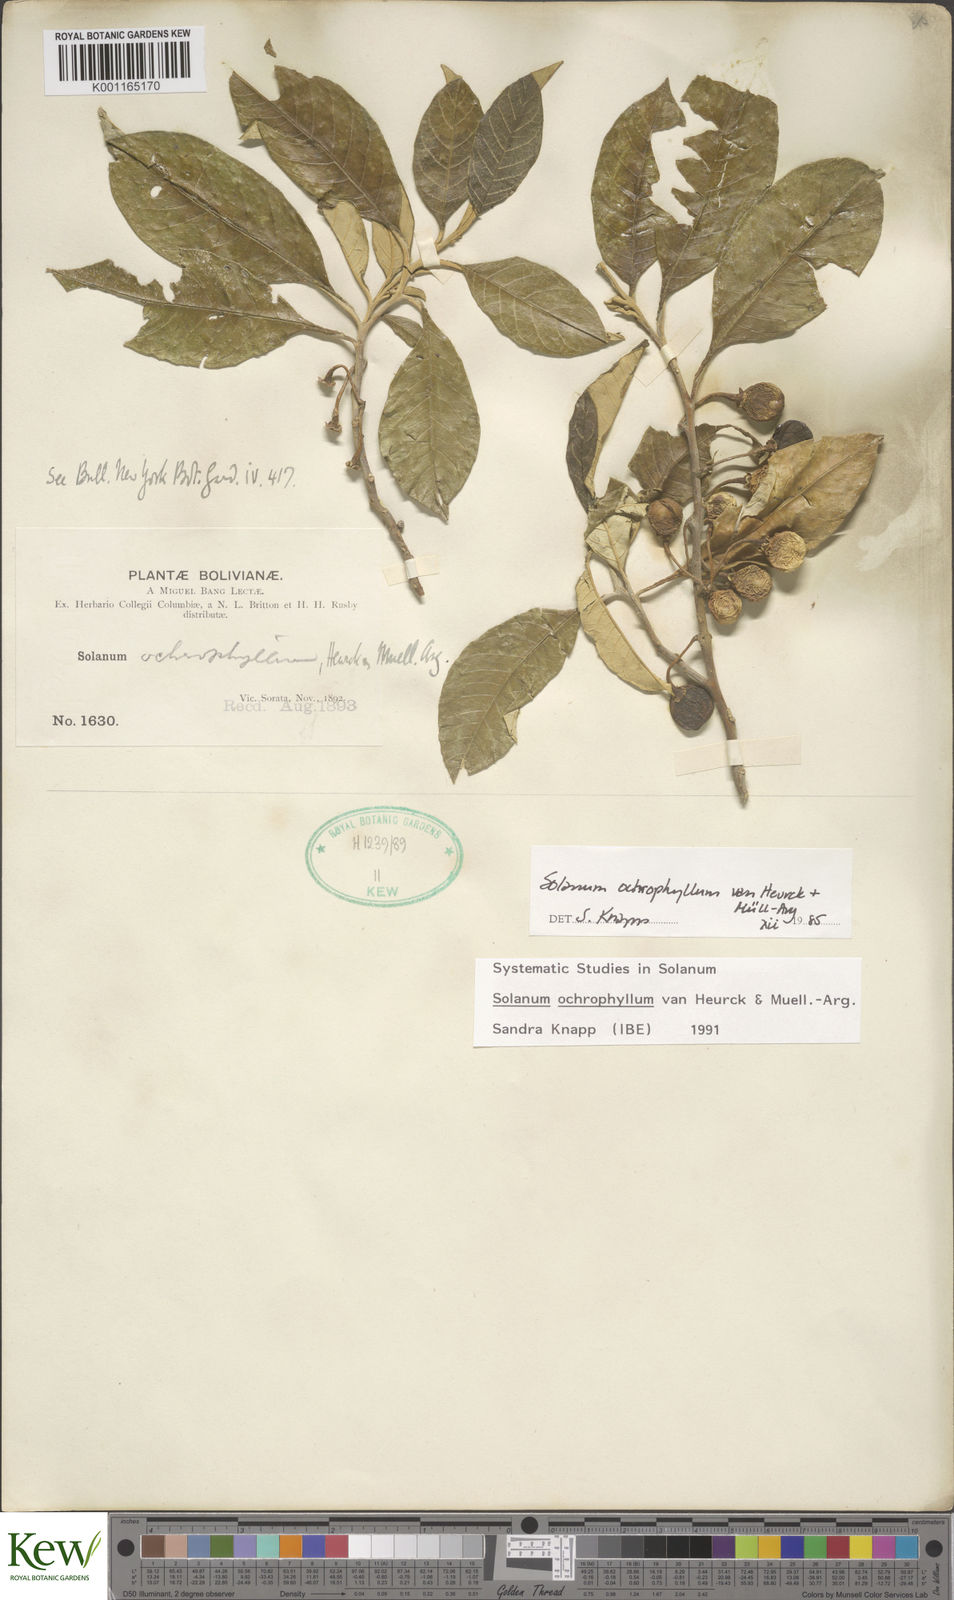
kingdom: Plantae
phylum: Tracheophyta
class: Magnoliopsida
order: Solanales
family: Solanaceae
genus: Solanum
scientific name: Solanum ochrophyllum
